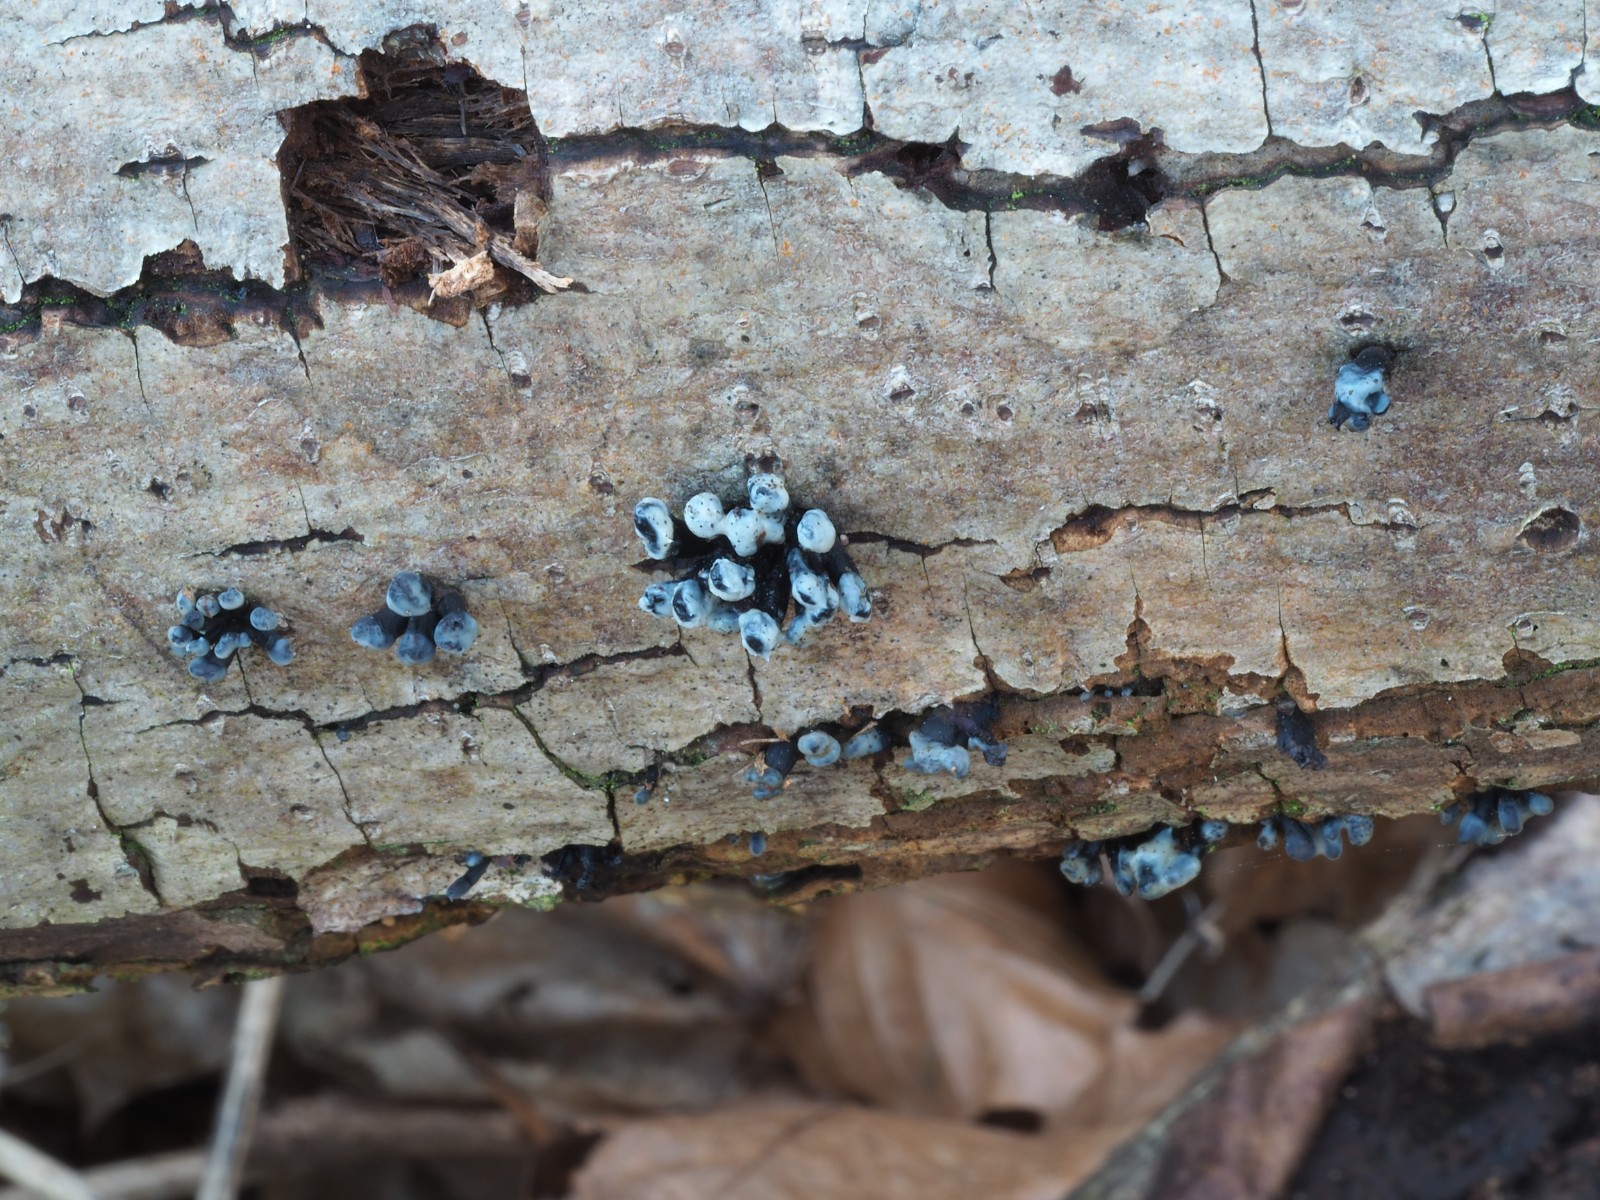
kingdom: Fungi
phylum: Ascomycota
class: Leotiomycetes
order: Helotiales
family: Bulgariaceae
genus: Holwaya
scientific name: Holwaya mucida
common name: lindeskive
